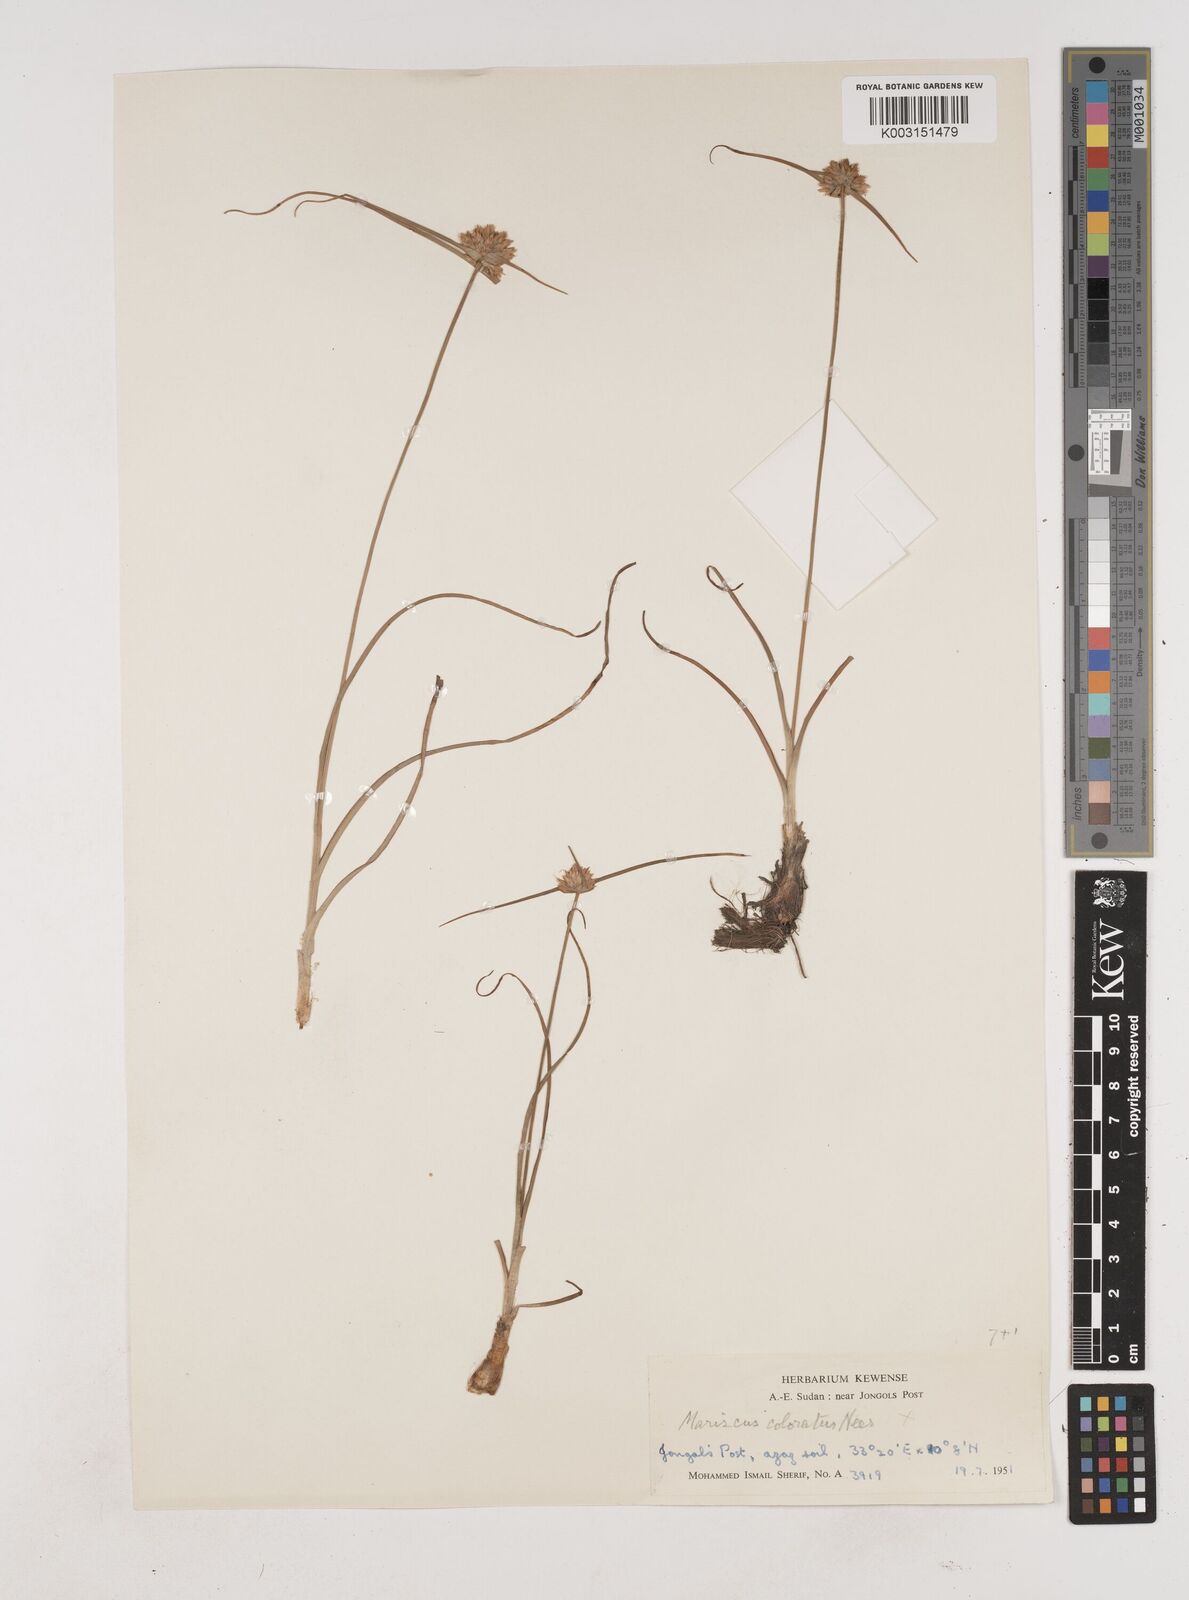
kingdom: Plantae
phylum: Tracheophyta
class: Liliopsida
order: Poales
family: Cyperaceae
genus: Cyperus
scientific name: Cyperus mollipes
